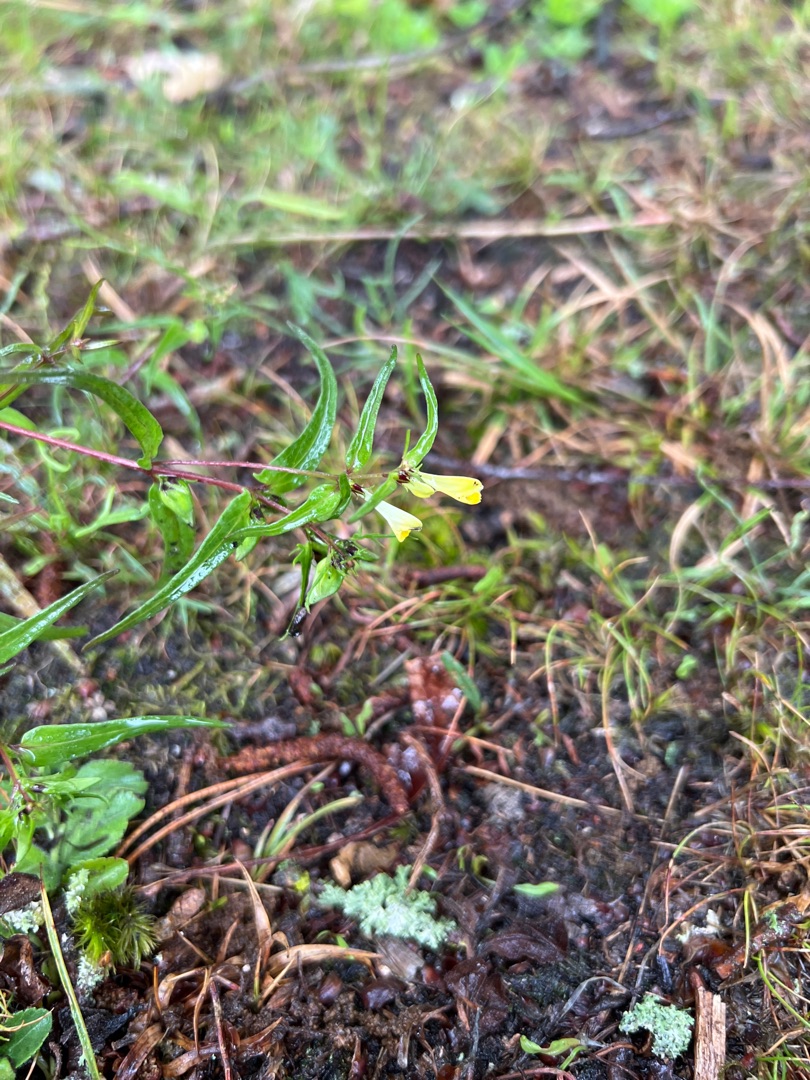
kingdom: Plantae
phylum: Tracheophyta
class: Magnoliopsida
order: Lamiales
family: Orobanchaceae
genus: Melampyrum
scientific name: Melampyrum pratense
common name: Almindelig kohvede
